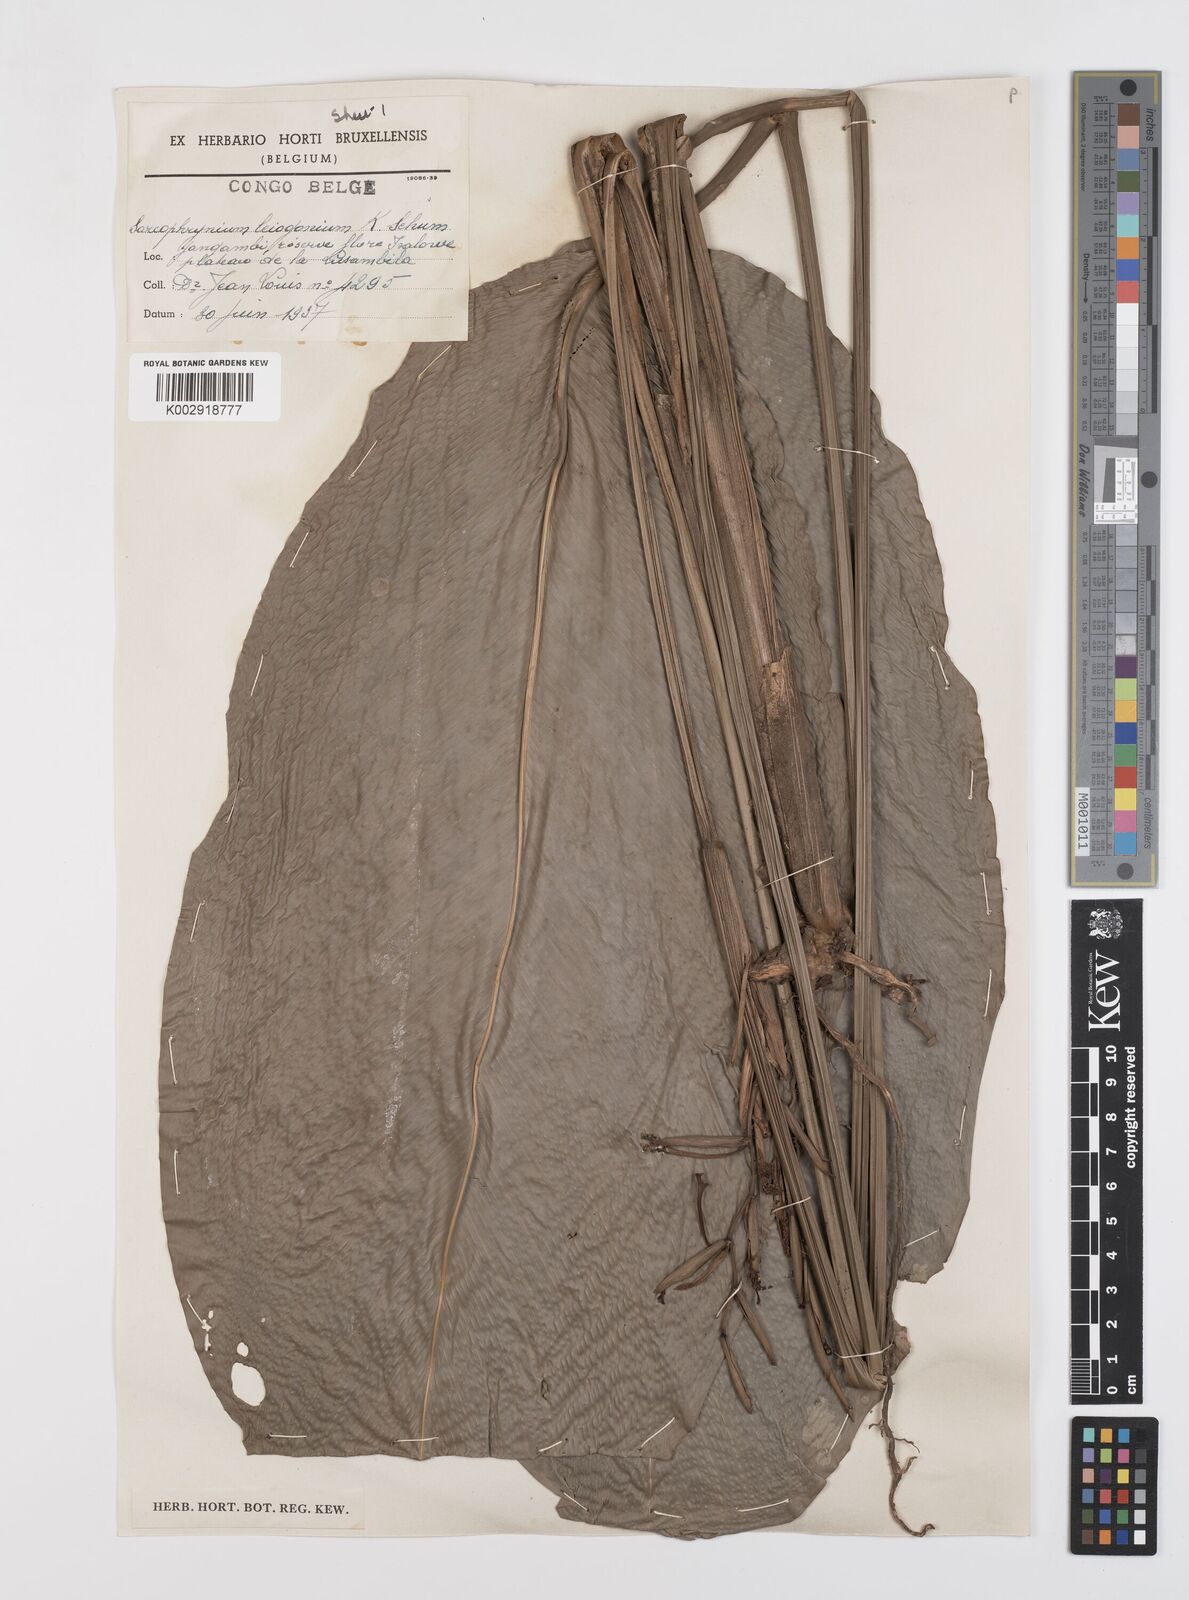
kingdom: Plantae
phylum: Tracheophyta
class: Liliopsida
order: Zingiberales
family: Marantaceae
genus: Sarcophrynium
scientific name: Sarcophrynium schweinfurthianum
